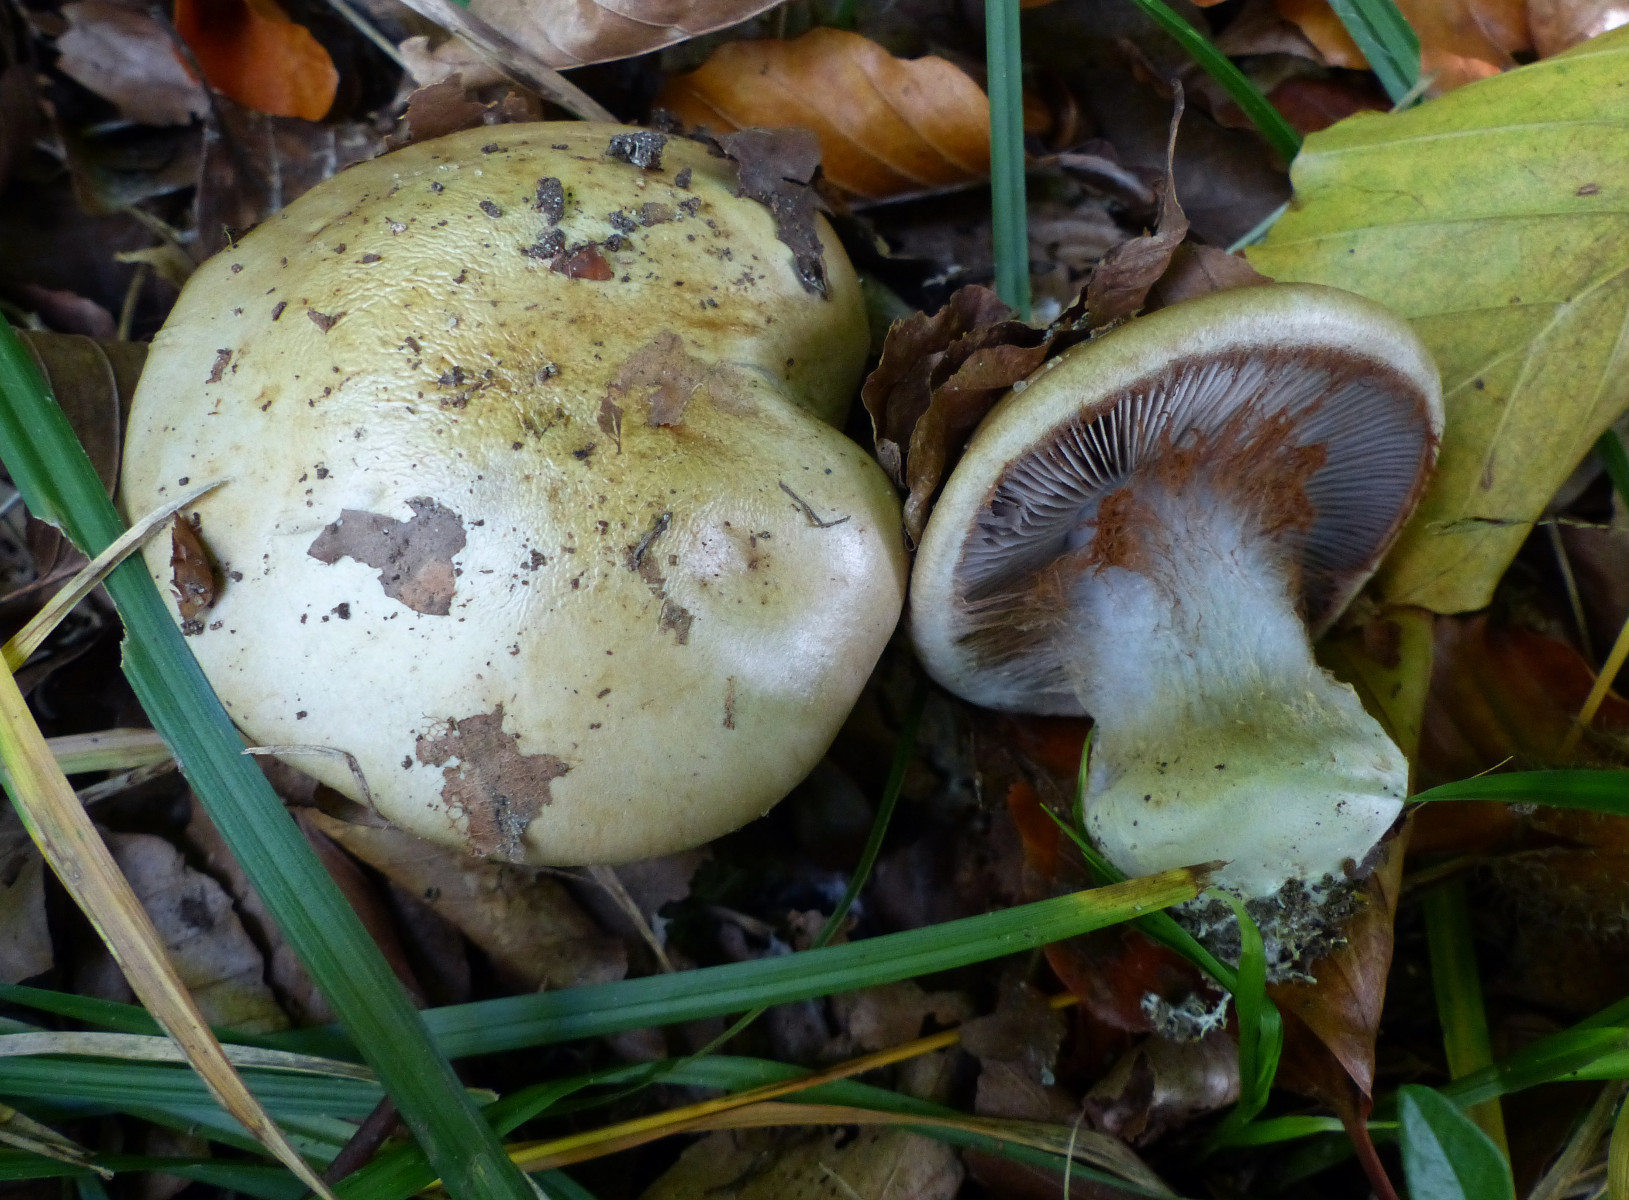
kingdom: Fungi
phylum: Basidiomycota
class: Agaricomycetes
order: Agaricales
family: Cortinariaceae
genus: Cortinarius
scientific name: Cortinarius anserinus
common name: bøge-slørhat
